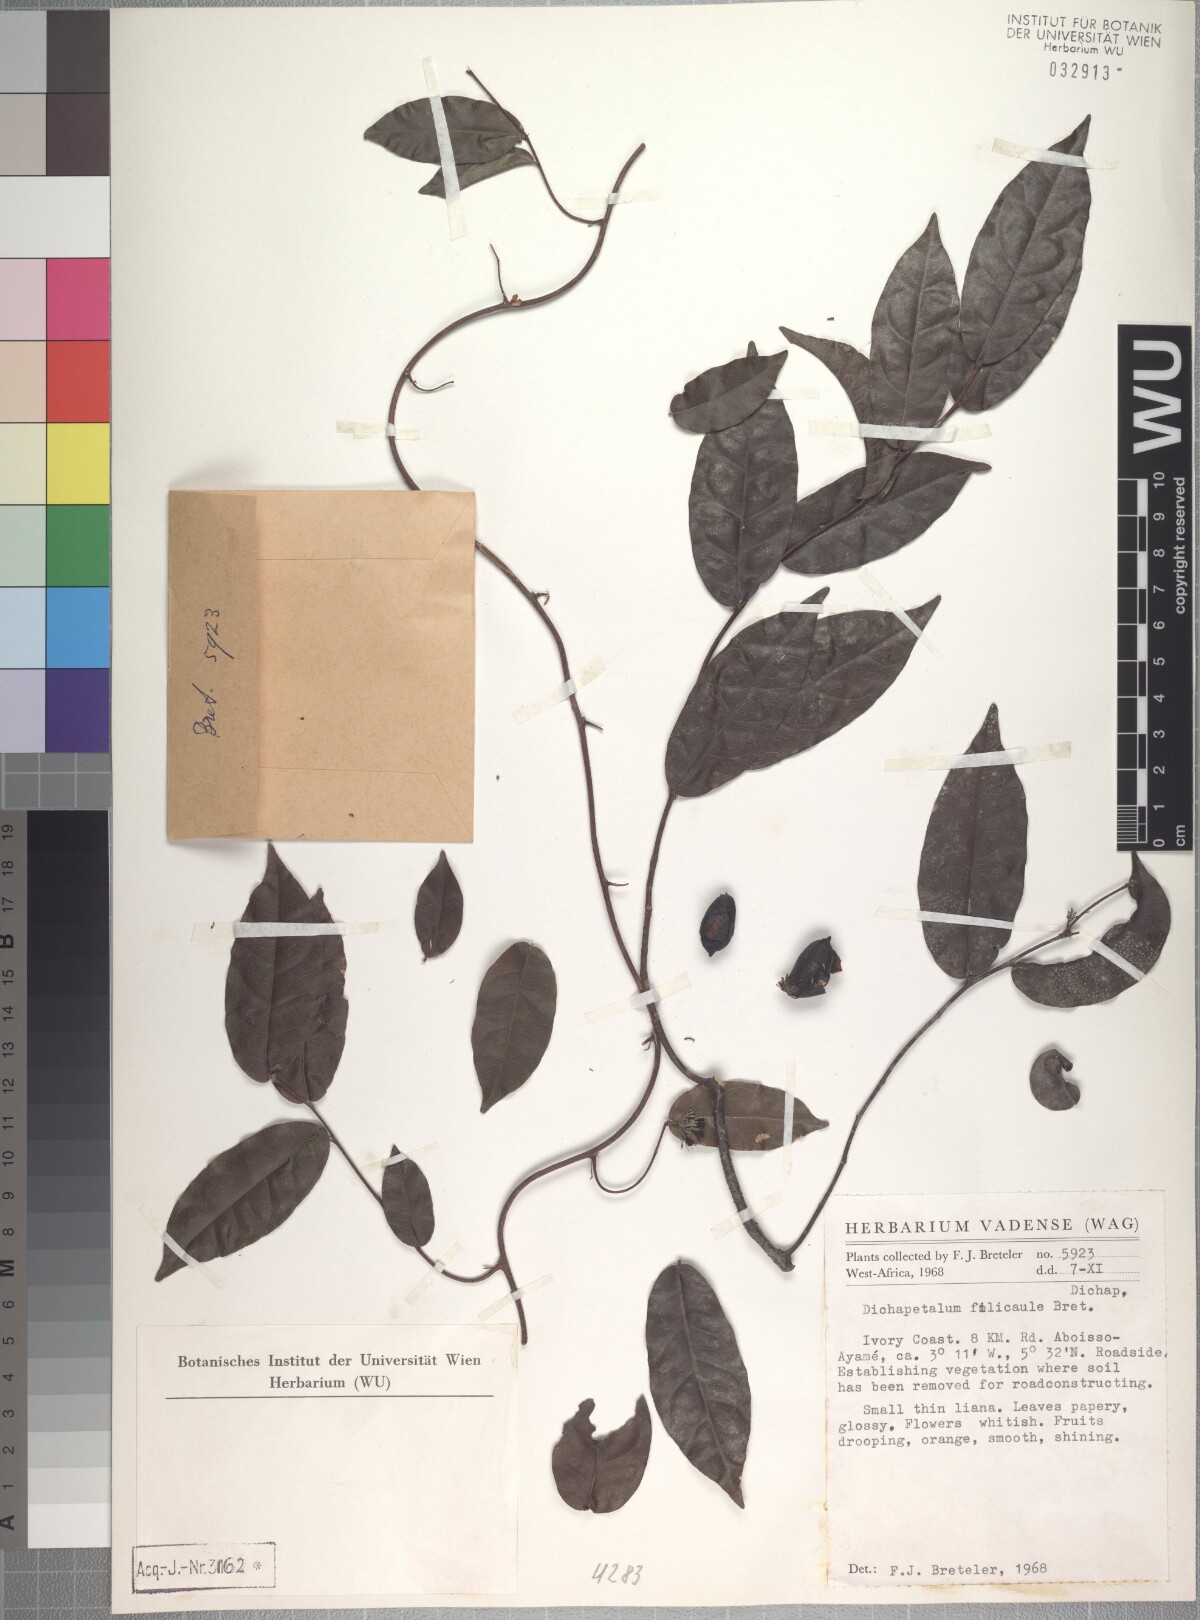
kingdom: Plantae
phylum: Tracheophyta
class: Magnoliopsida
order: Malpighiales
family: Dichapetalaceae
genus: Dichapetalum
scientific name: Dichapetalum filicaule
